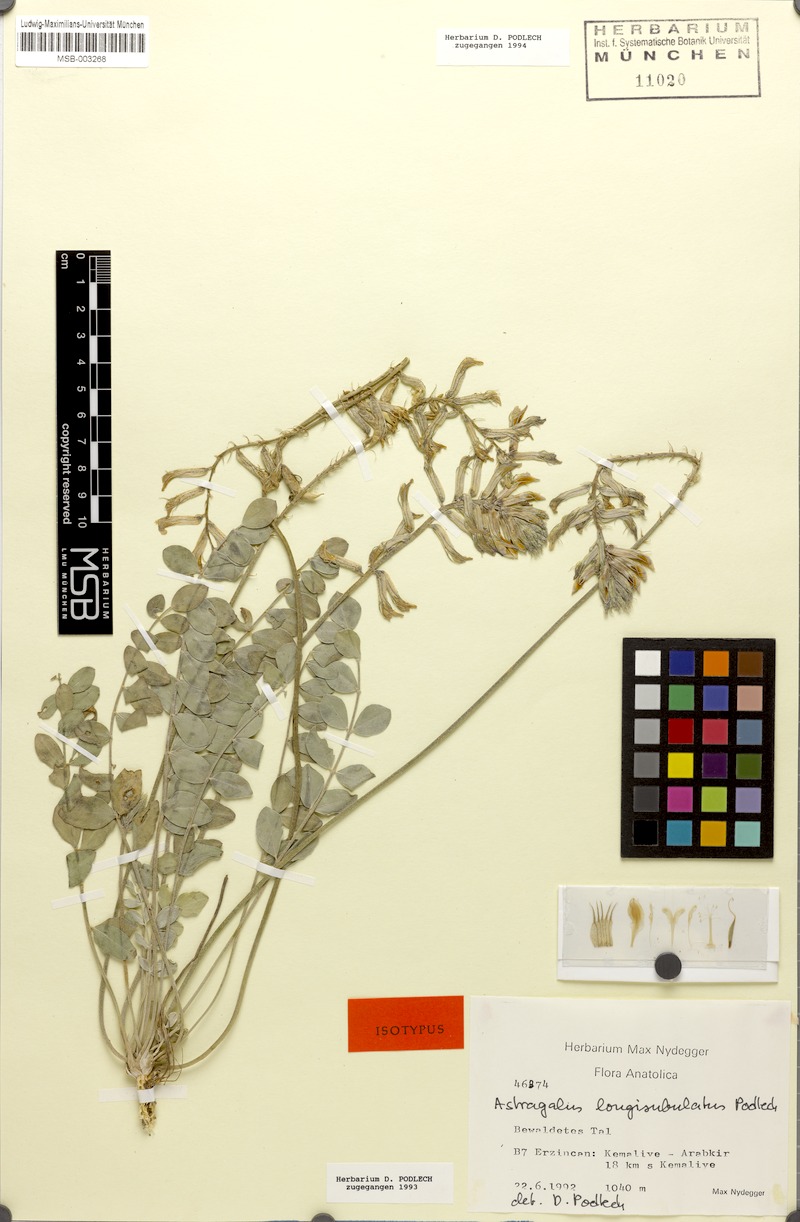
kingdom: Plantae
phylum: Tracheophyta
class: Magnoliopsida
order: Fabales
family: Fabaceae
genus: Astragalus
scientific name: Astragalus longisubulatus
